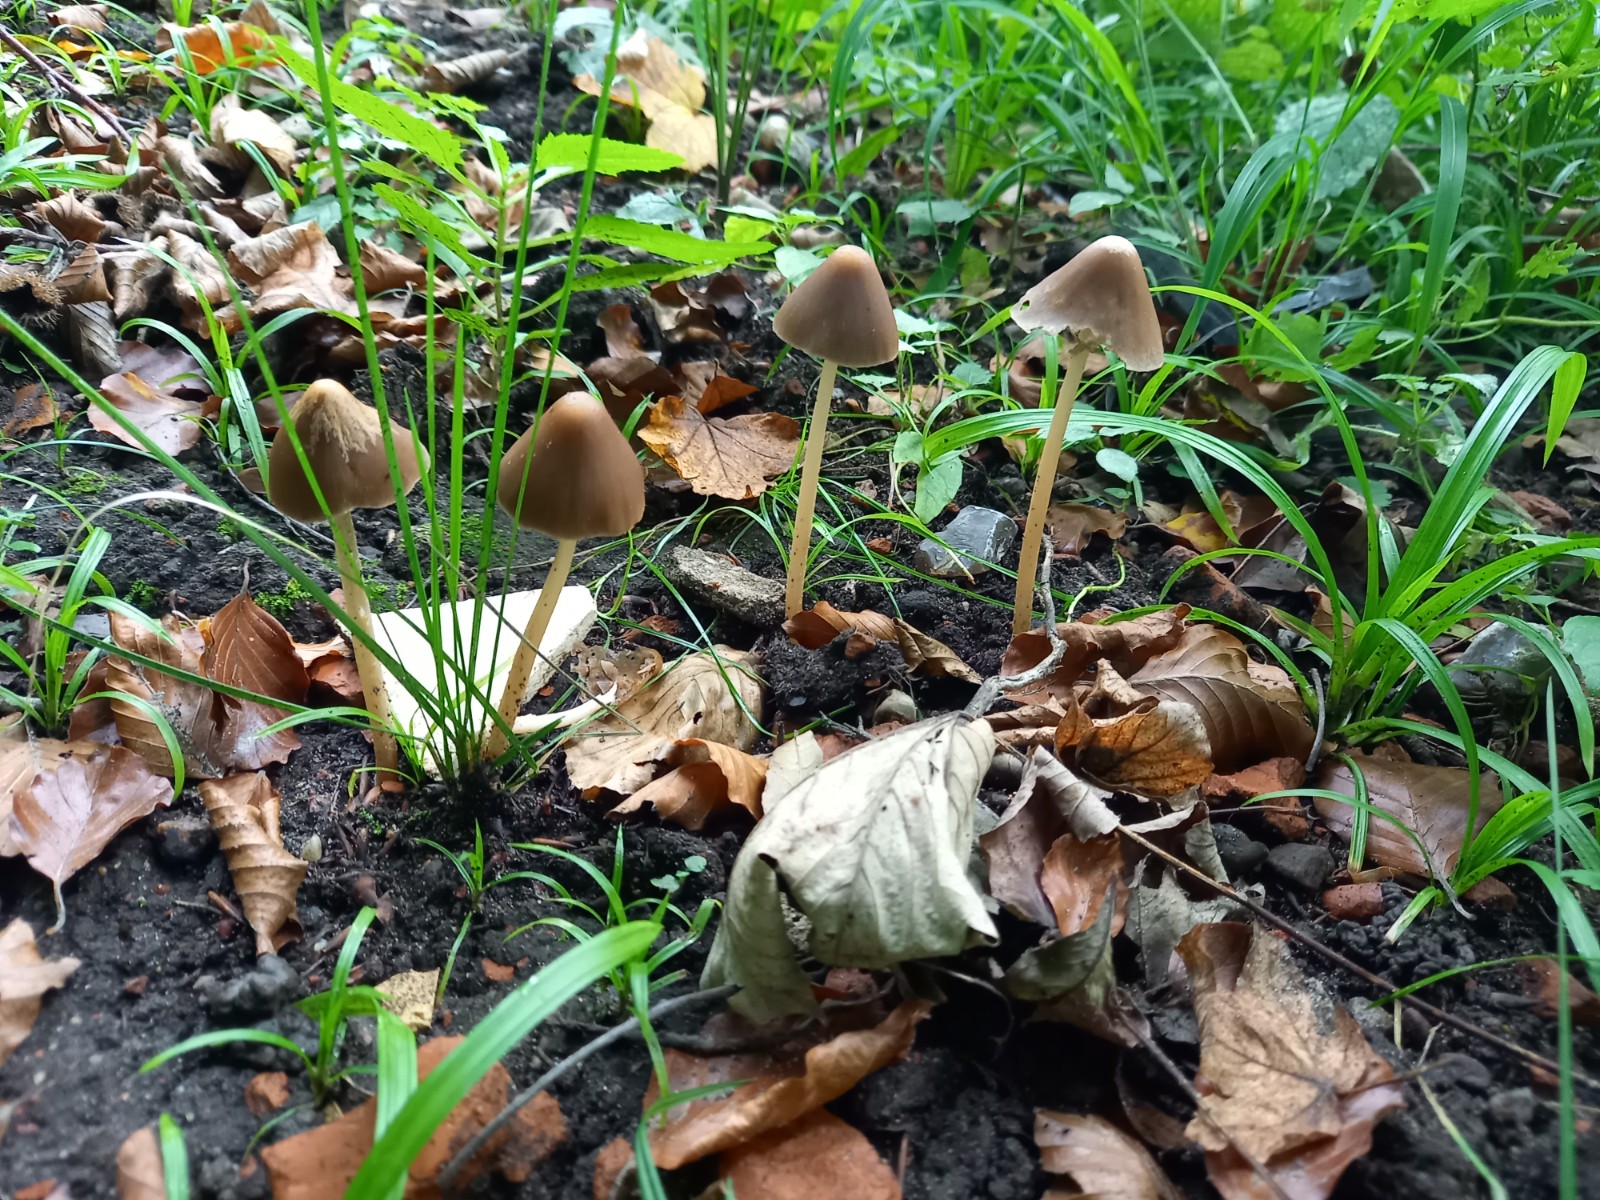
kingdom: Fungi
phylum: Basidiomycota
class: Agaricomycetes
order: Agaricales
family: Psathyrellaceae
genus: Parasola
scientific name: Parasola conopilea
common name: kegle-hjulhat
